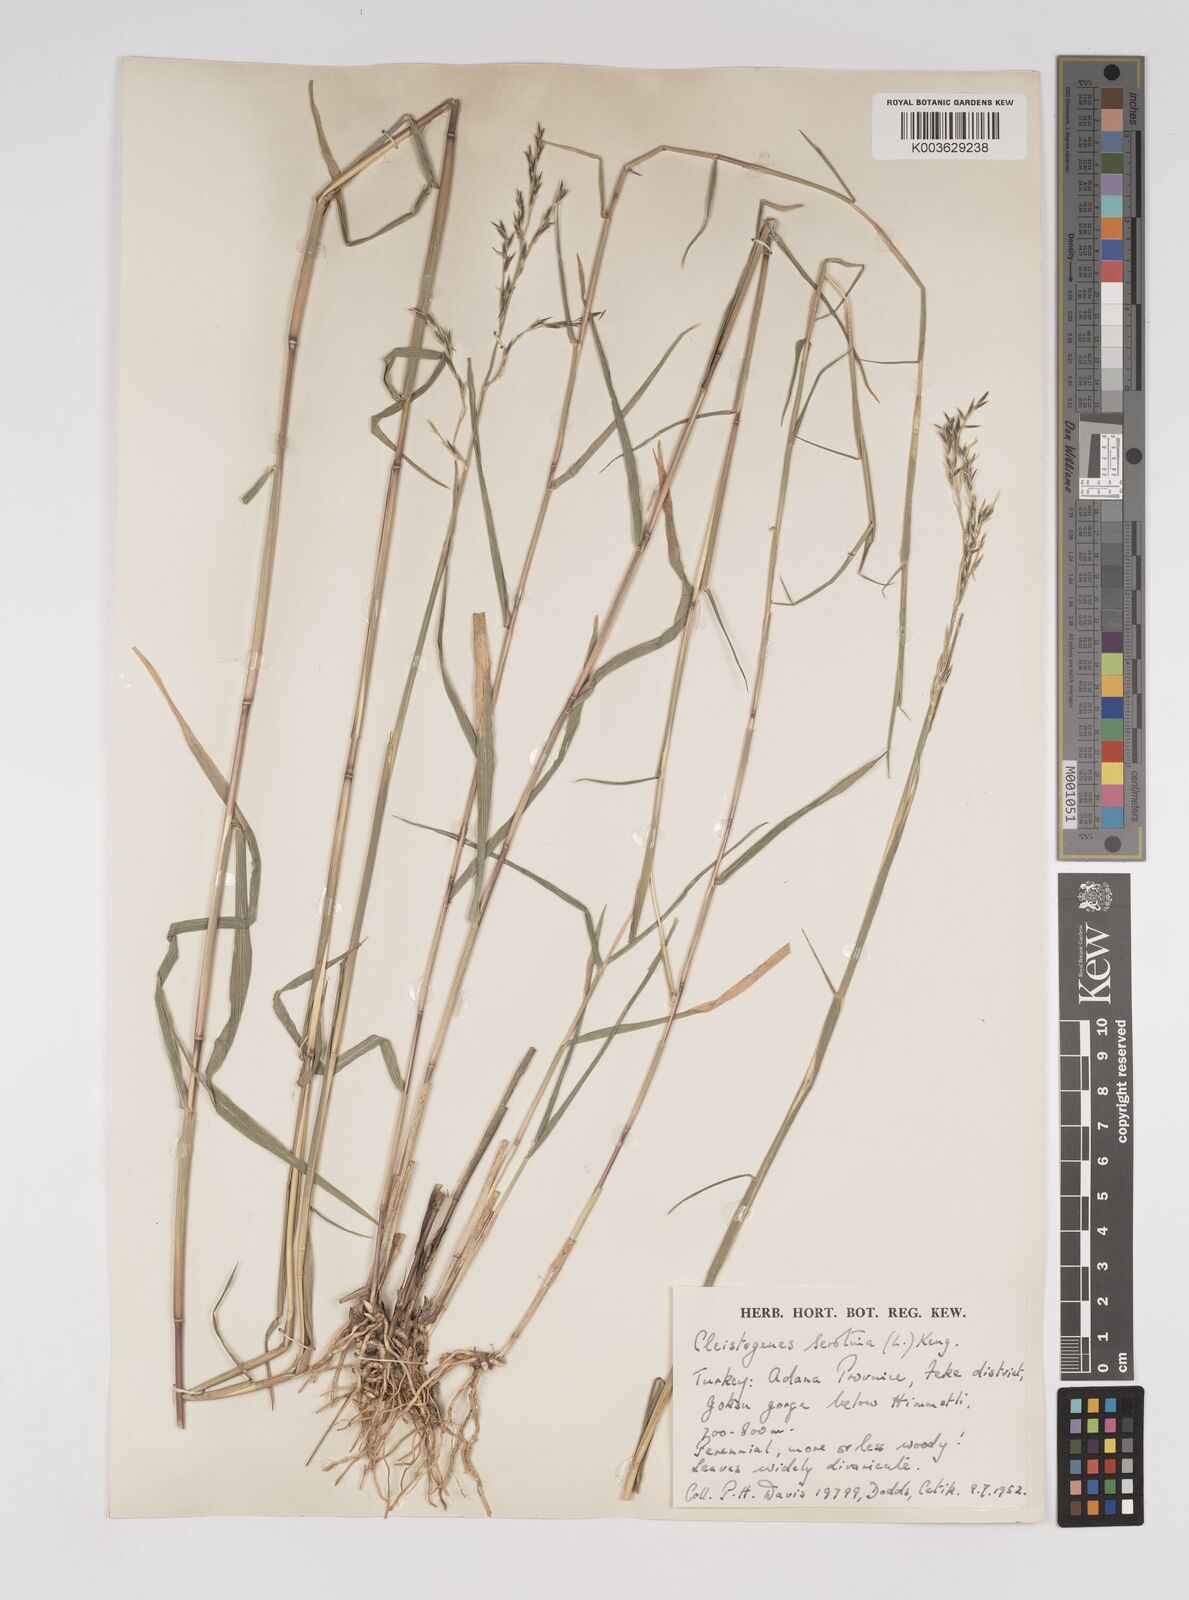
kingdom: Plantae
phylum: Tracheophyta
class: Liliopsida
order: Poales
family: Poaceae
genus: Cleistogenes
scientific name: Cleistogenes serotina
